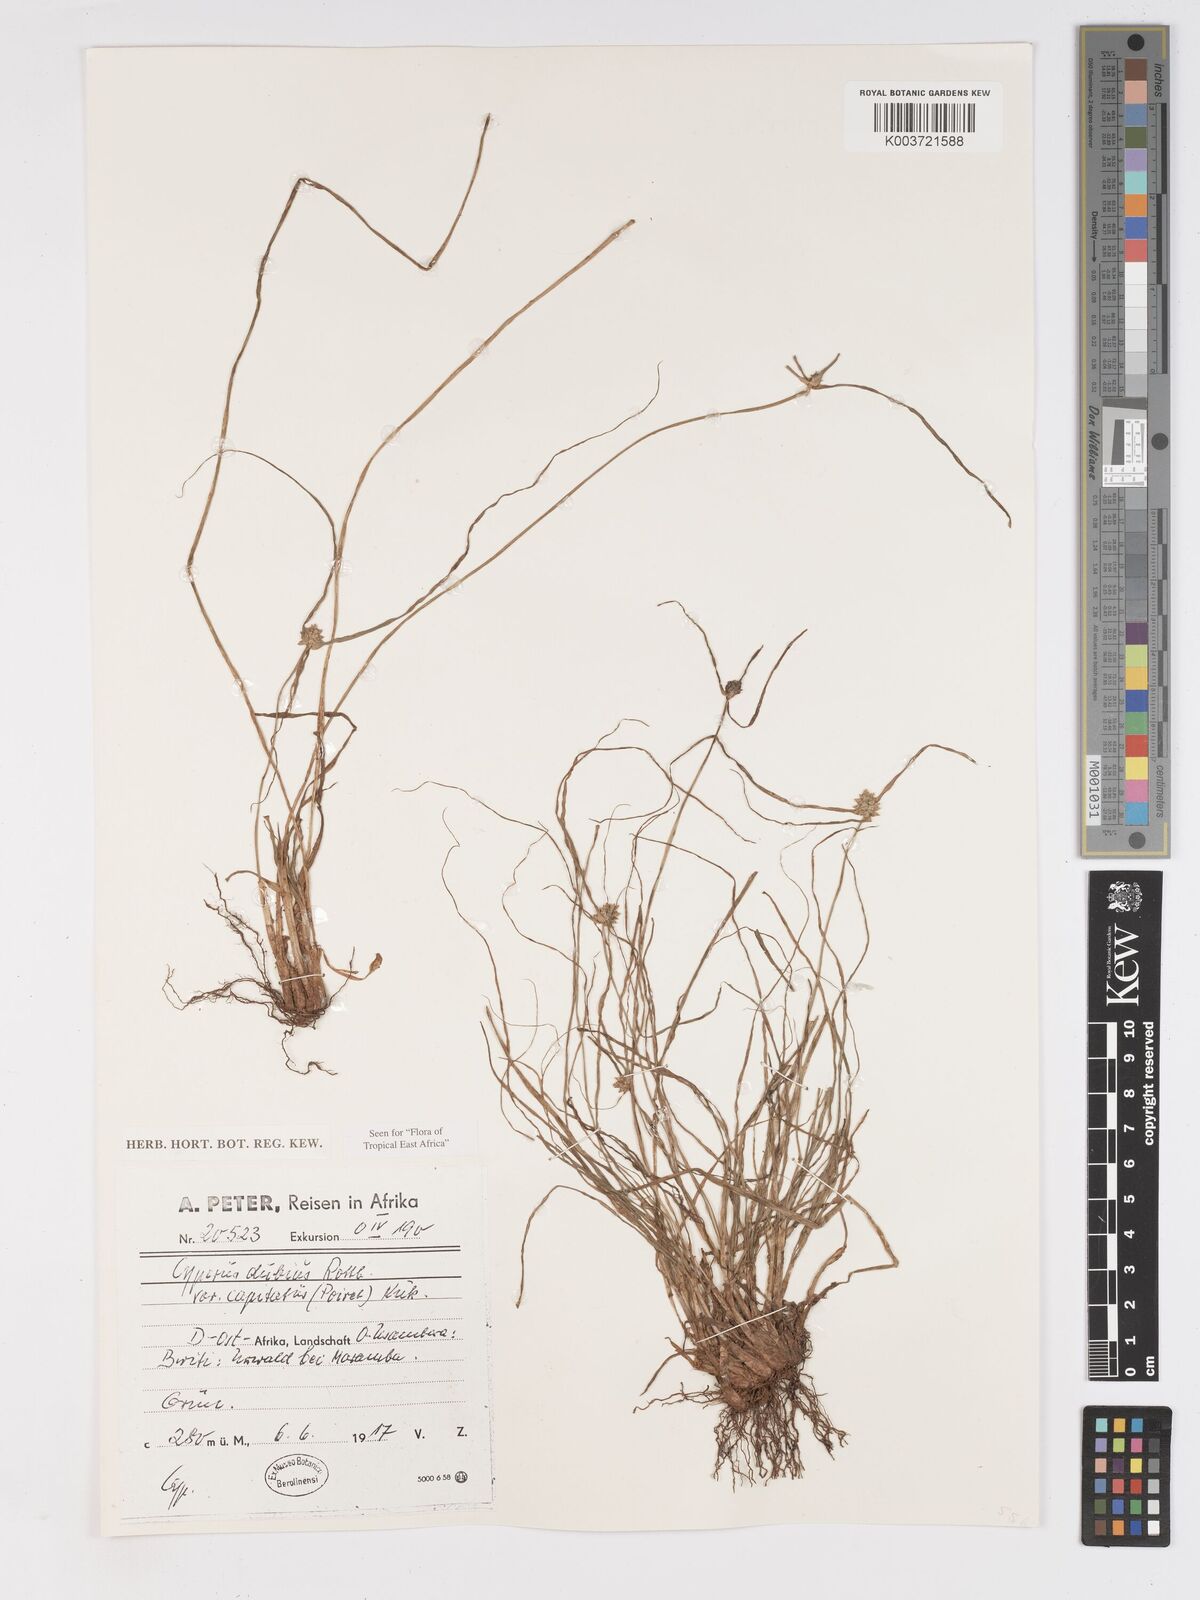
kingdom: Plantae
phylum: Tracheophyta
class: Liliopsida
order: Poales
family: Cyperaceae
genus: Cyperus
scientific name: Cyperus dubius
